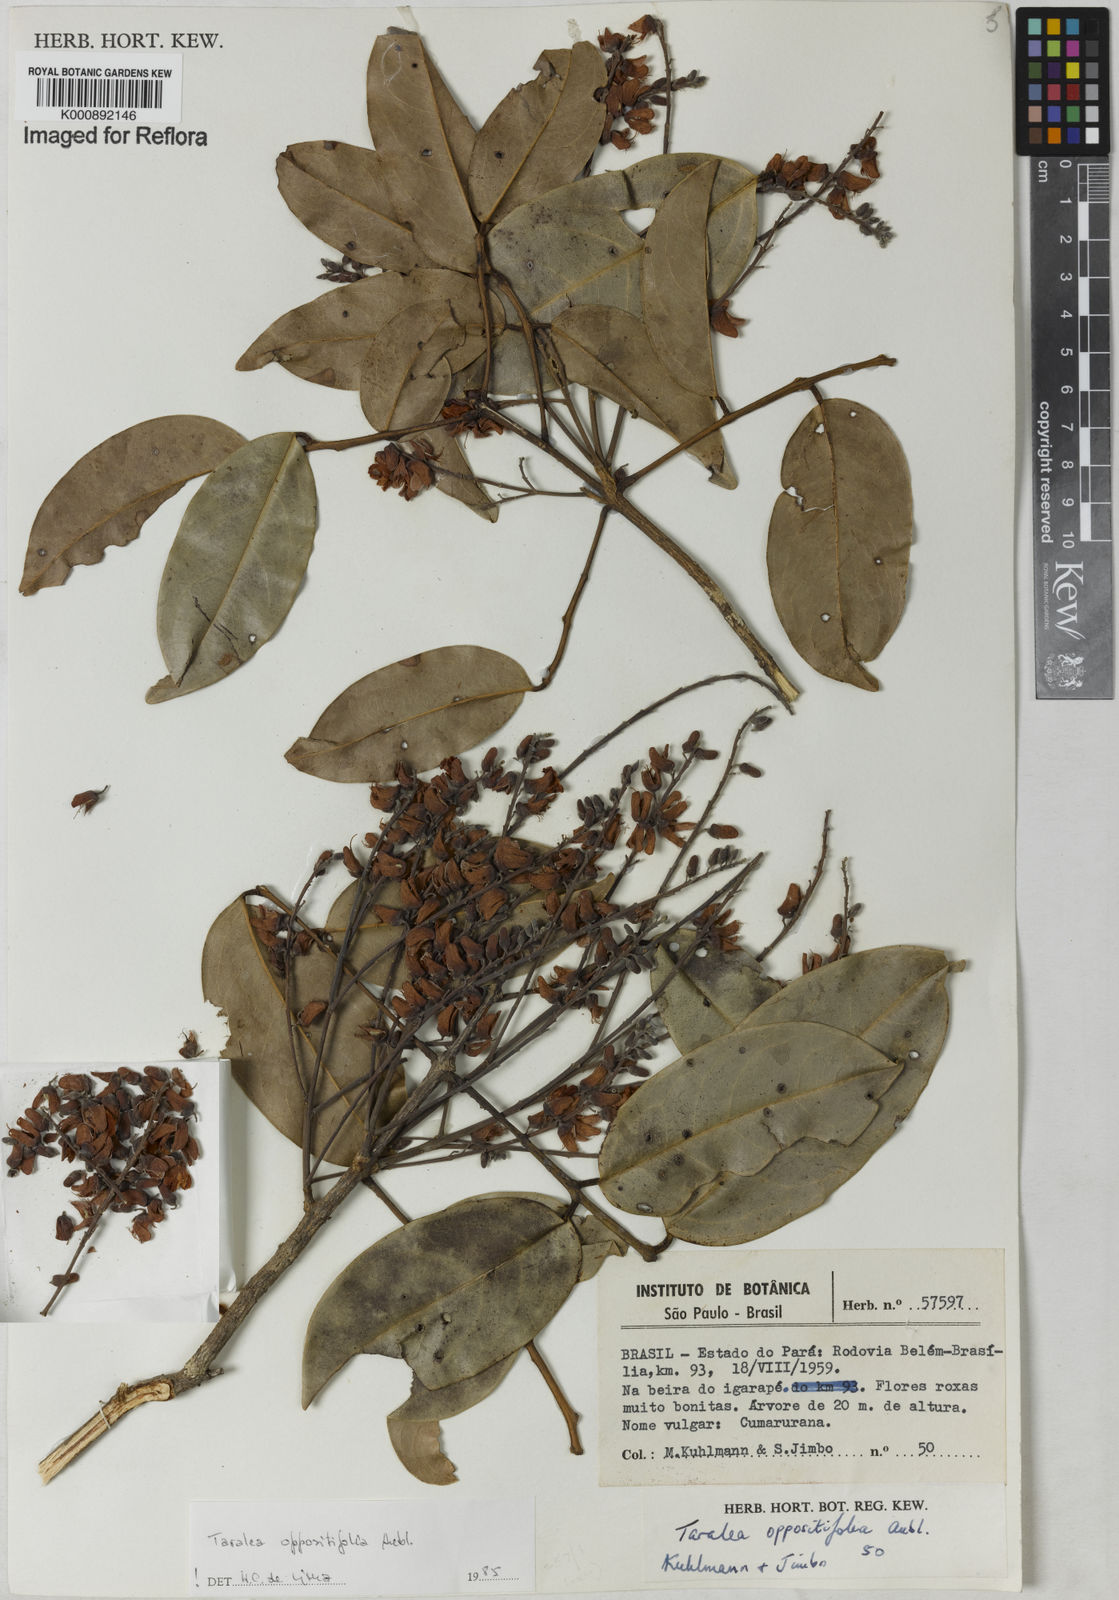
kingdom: Plantae
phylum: Tracheophyta
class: Magnoliopsida
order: Fabales
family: Fabaceae
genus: Taralea
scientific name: Taralea oppositifolia
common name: Tonka
